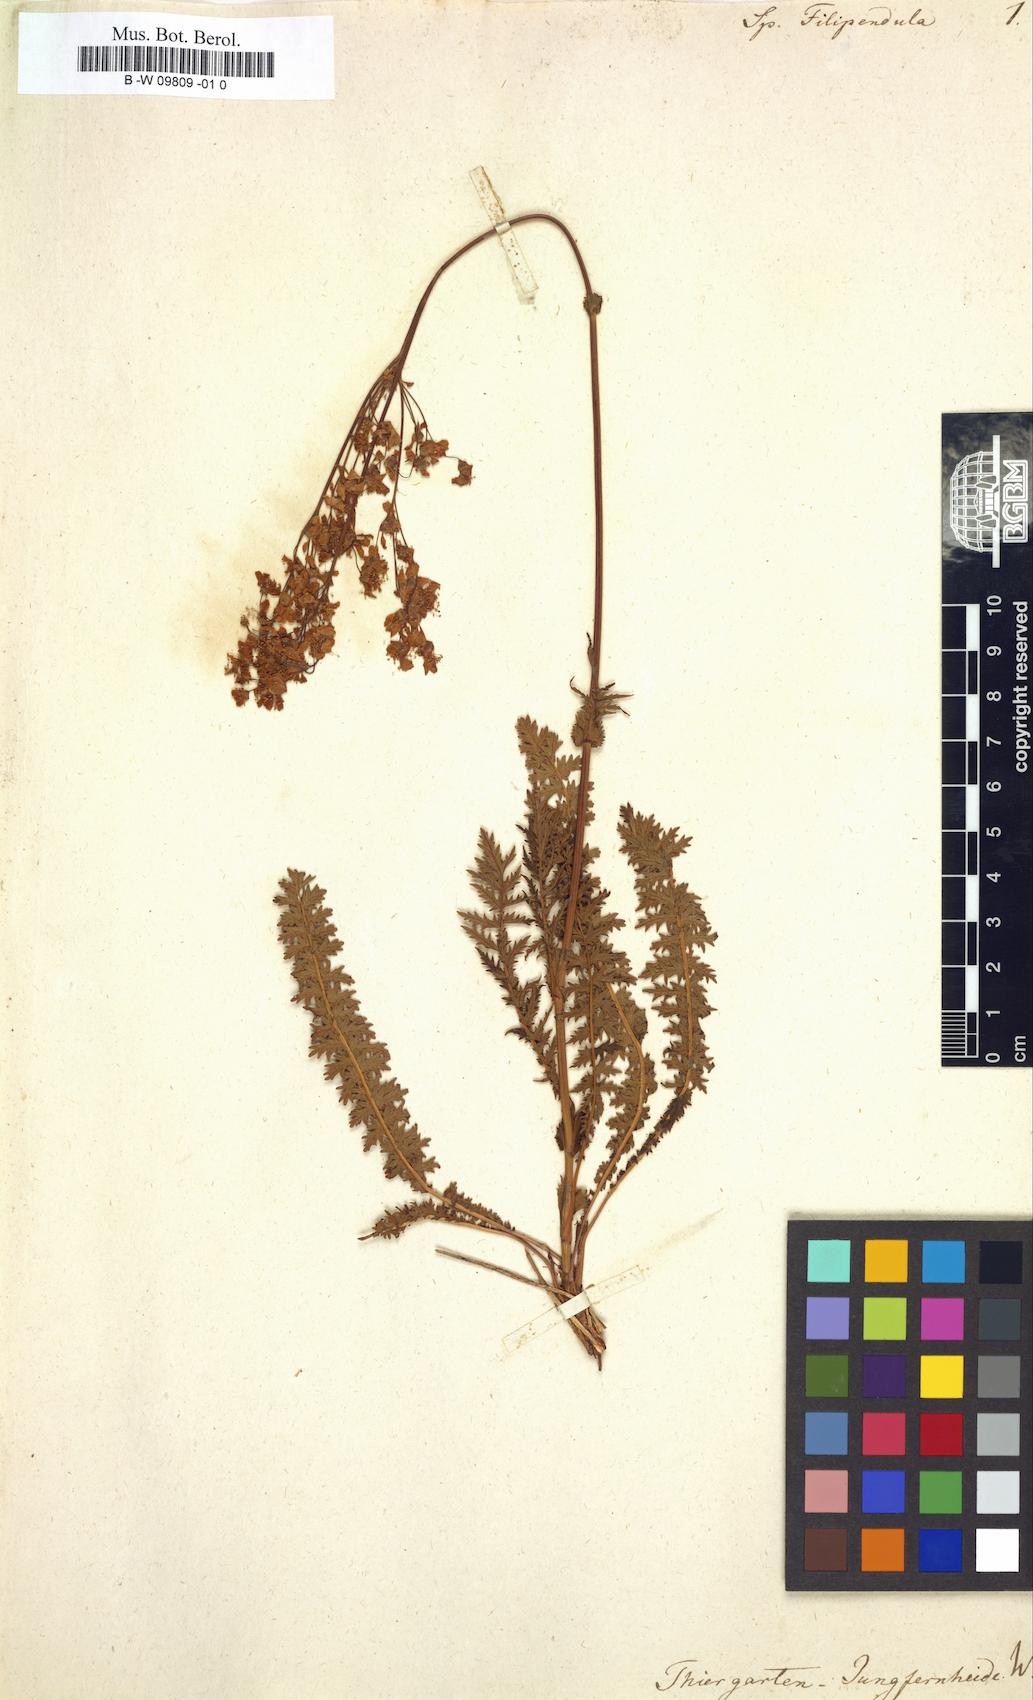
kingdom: Plantae
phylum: Tracheophyta
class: Magnoliopsida
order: Rosales
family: Rosaceae
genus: Filipendula
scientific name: Filipendula vulgaris
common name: Dropwort
